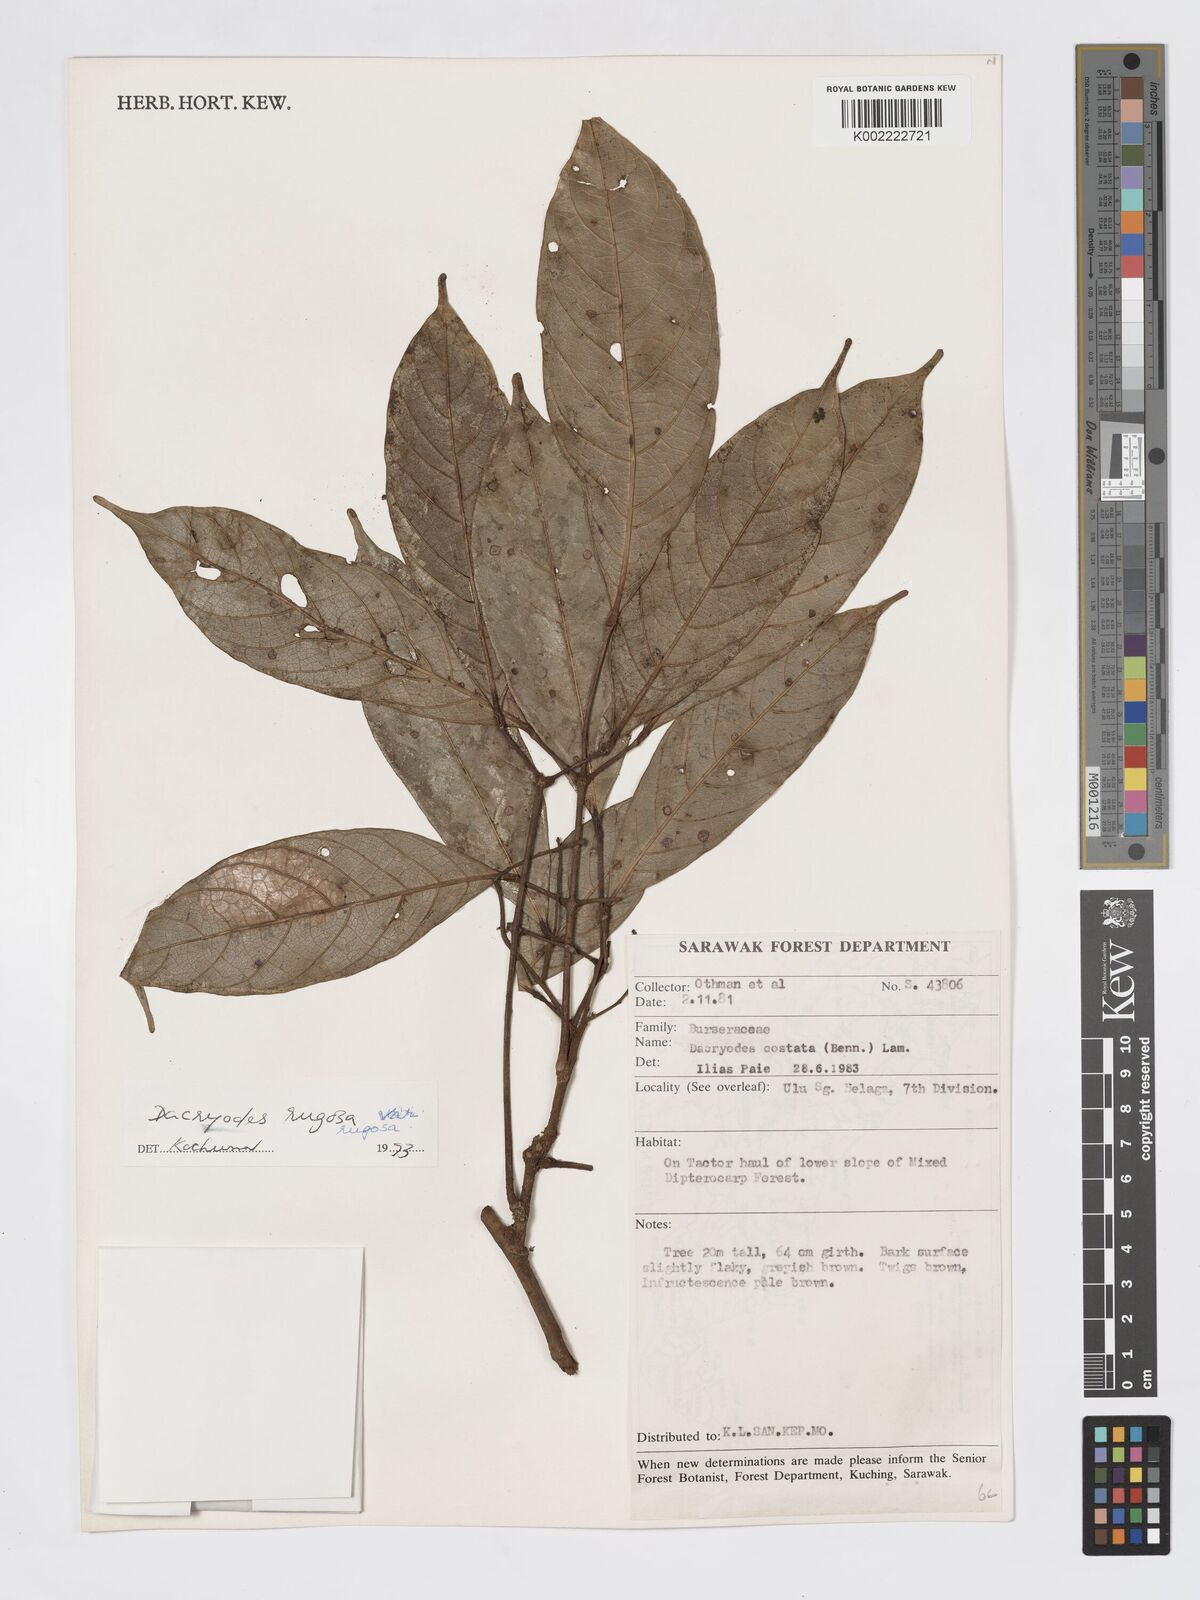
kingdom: Plantae
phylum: Tracheophyta
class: Magnoliopsida
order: Sapindales
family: Burseraceae
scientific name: Burseraceae
